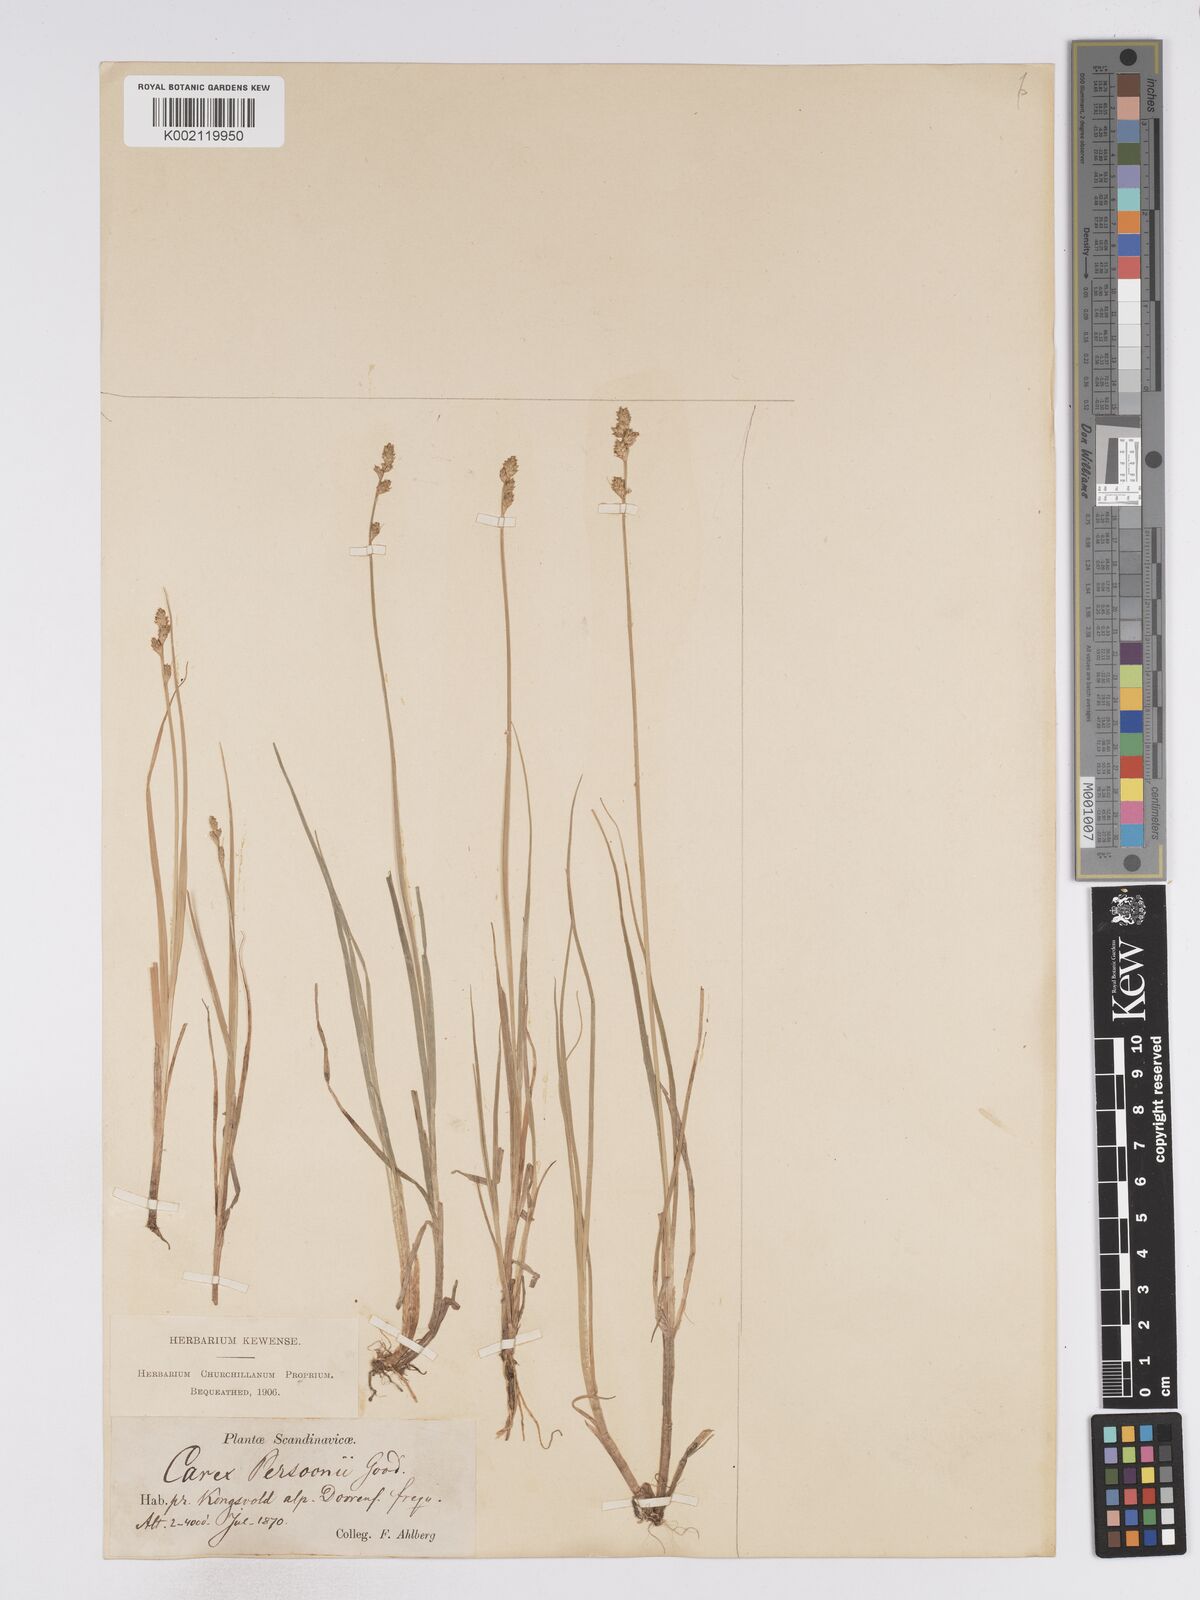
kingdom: Plantae
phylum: Tracheophyta
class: Liliopsida
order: Poales
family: Cyperaceae
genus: Carex
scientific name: Carex canescens
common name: White sedge
